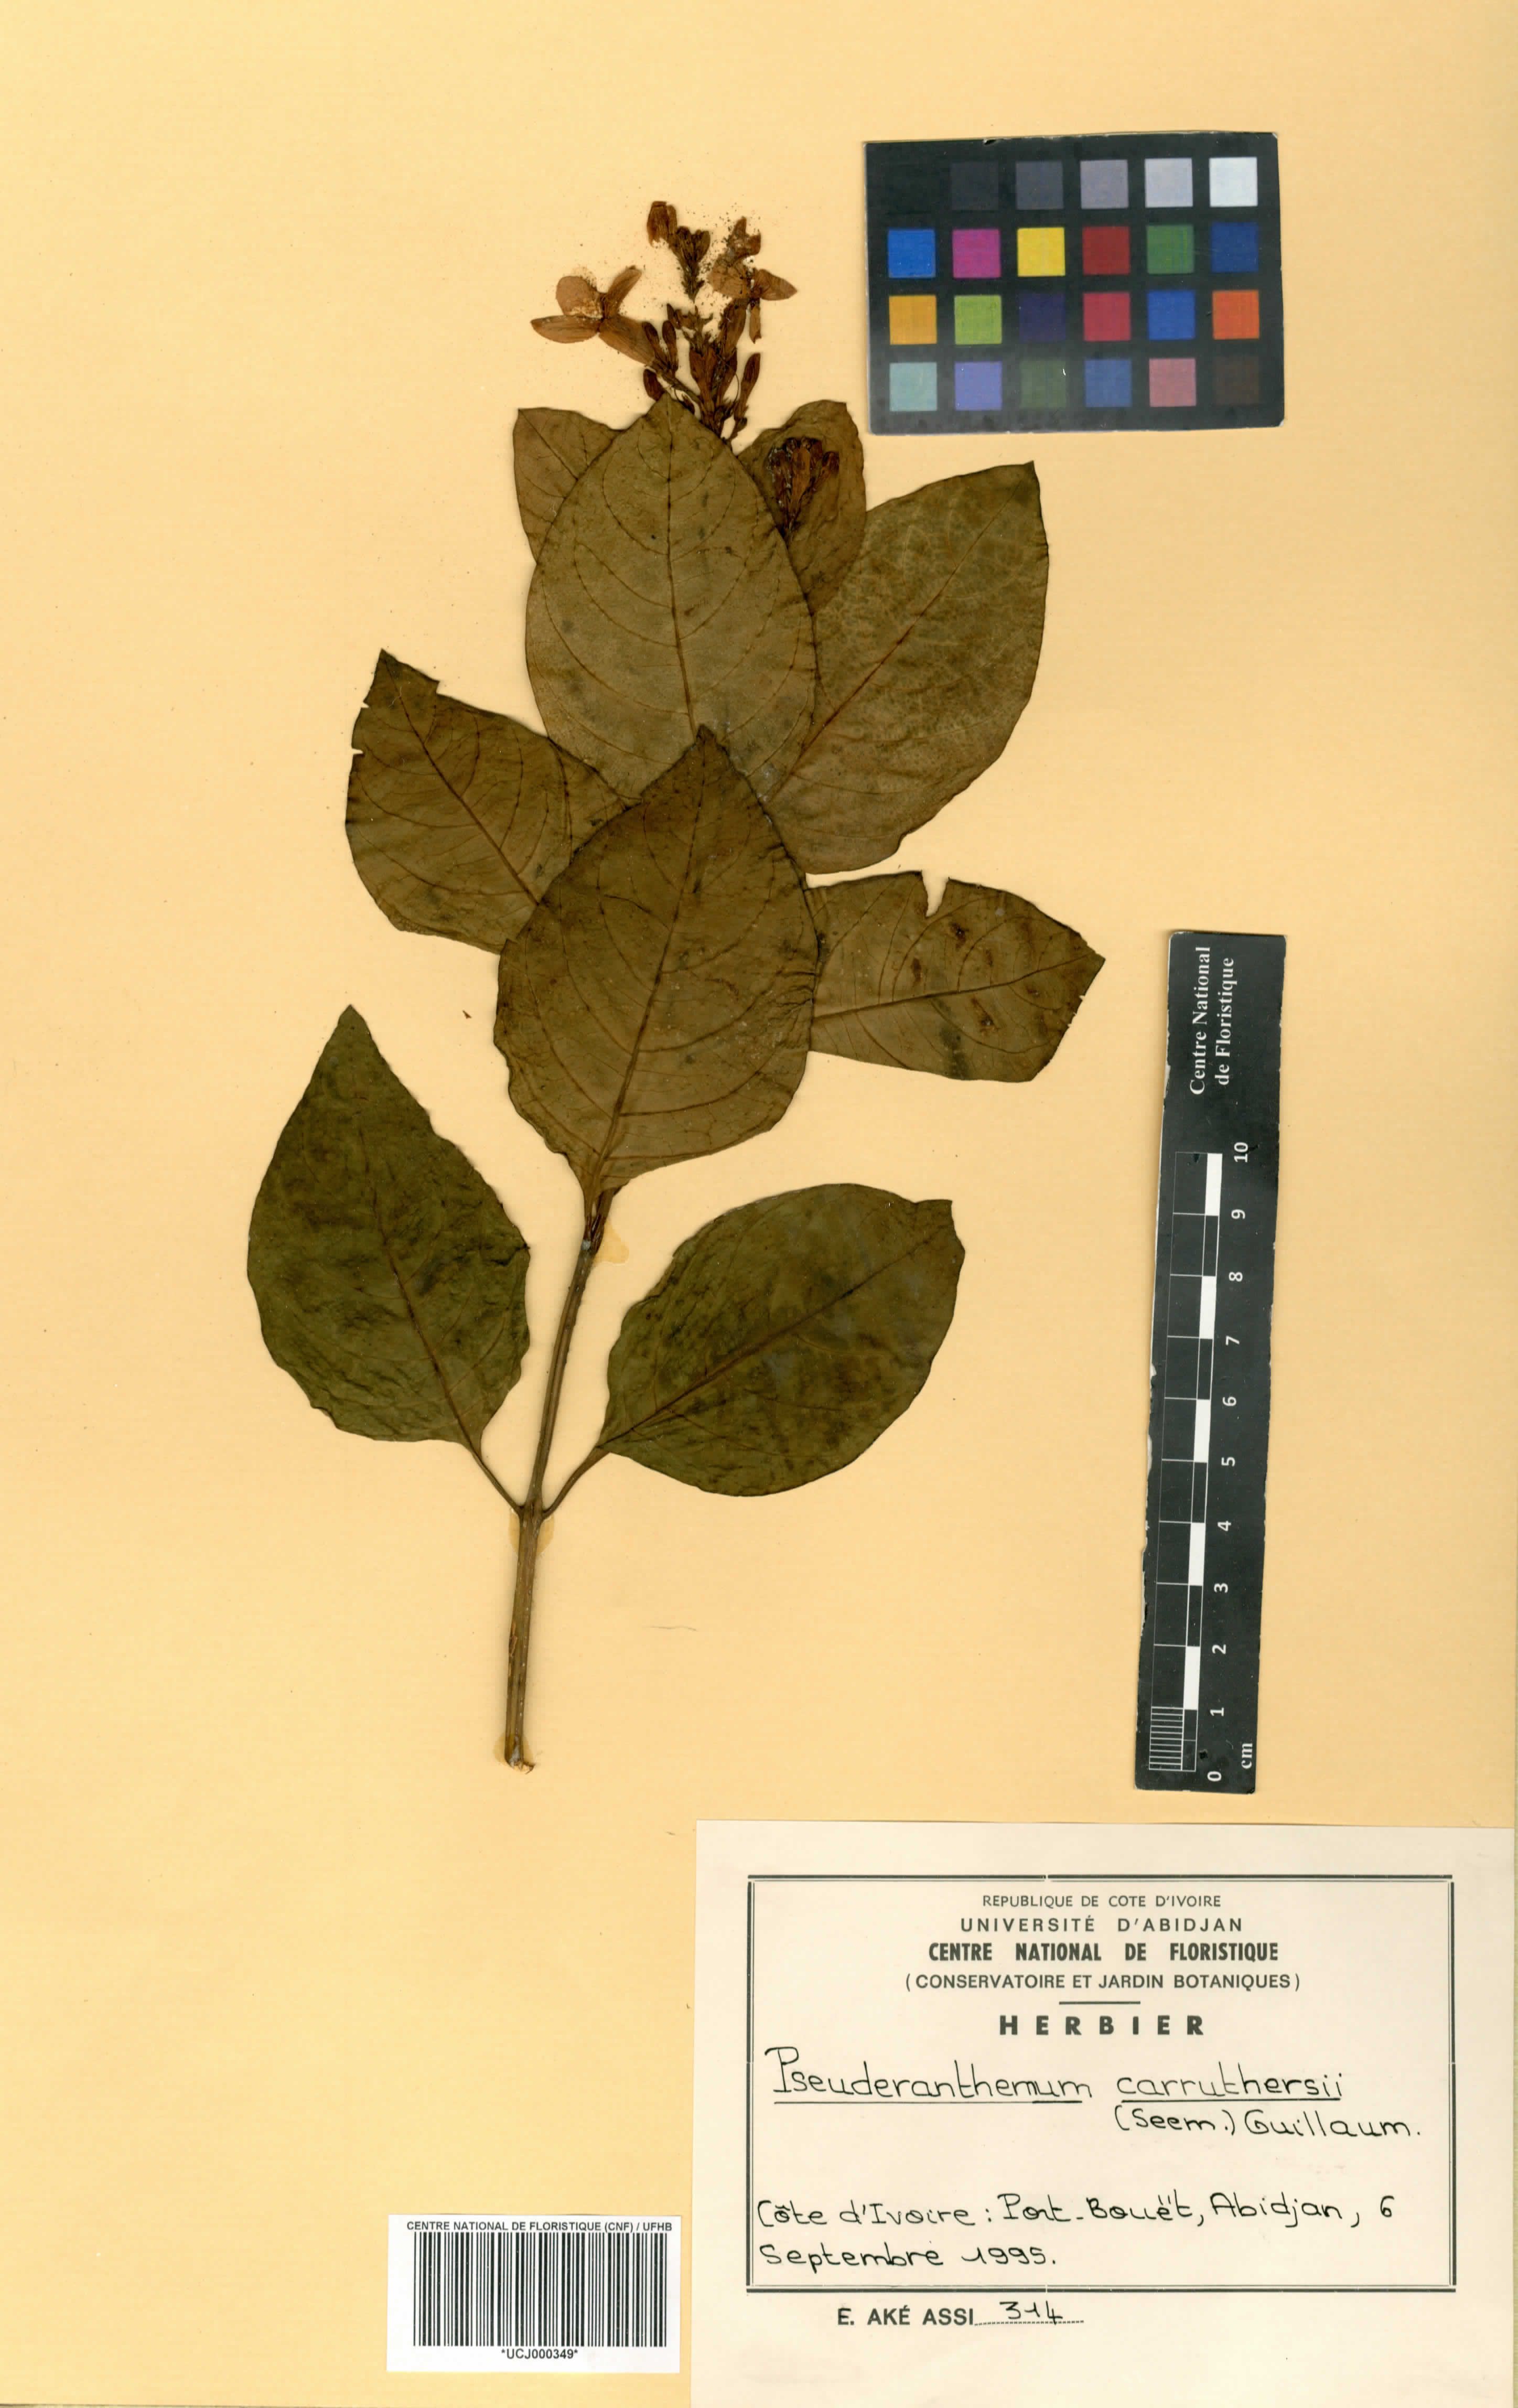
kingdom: Plantae
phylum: Tracheophyta
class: Magnoliopsida
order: Lamiales
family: Acanthaceae
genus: Pseuderanthemum
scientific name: Pseuderanthemum maculatum
